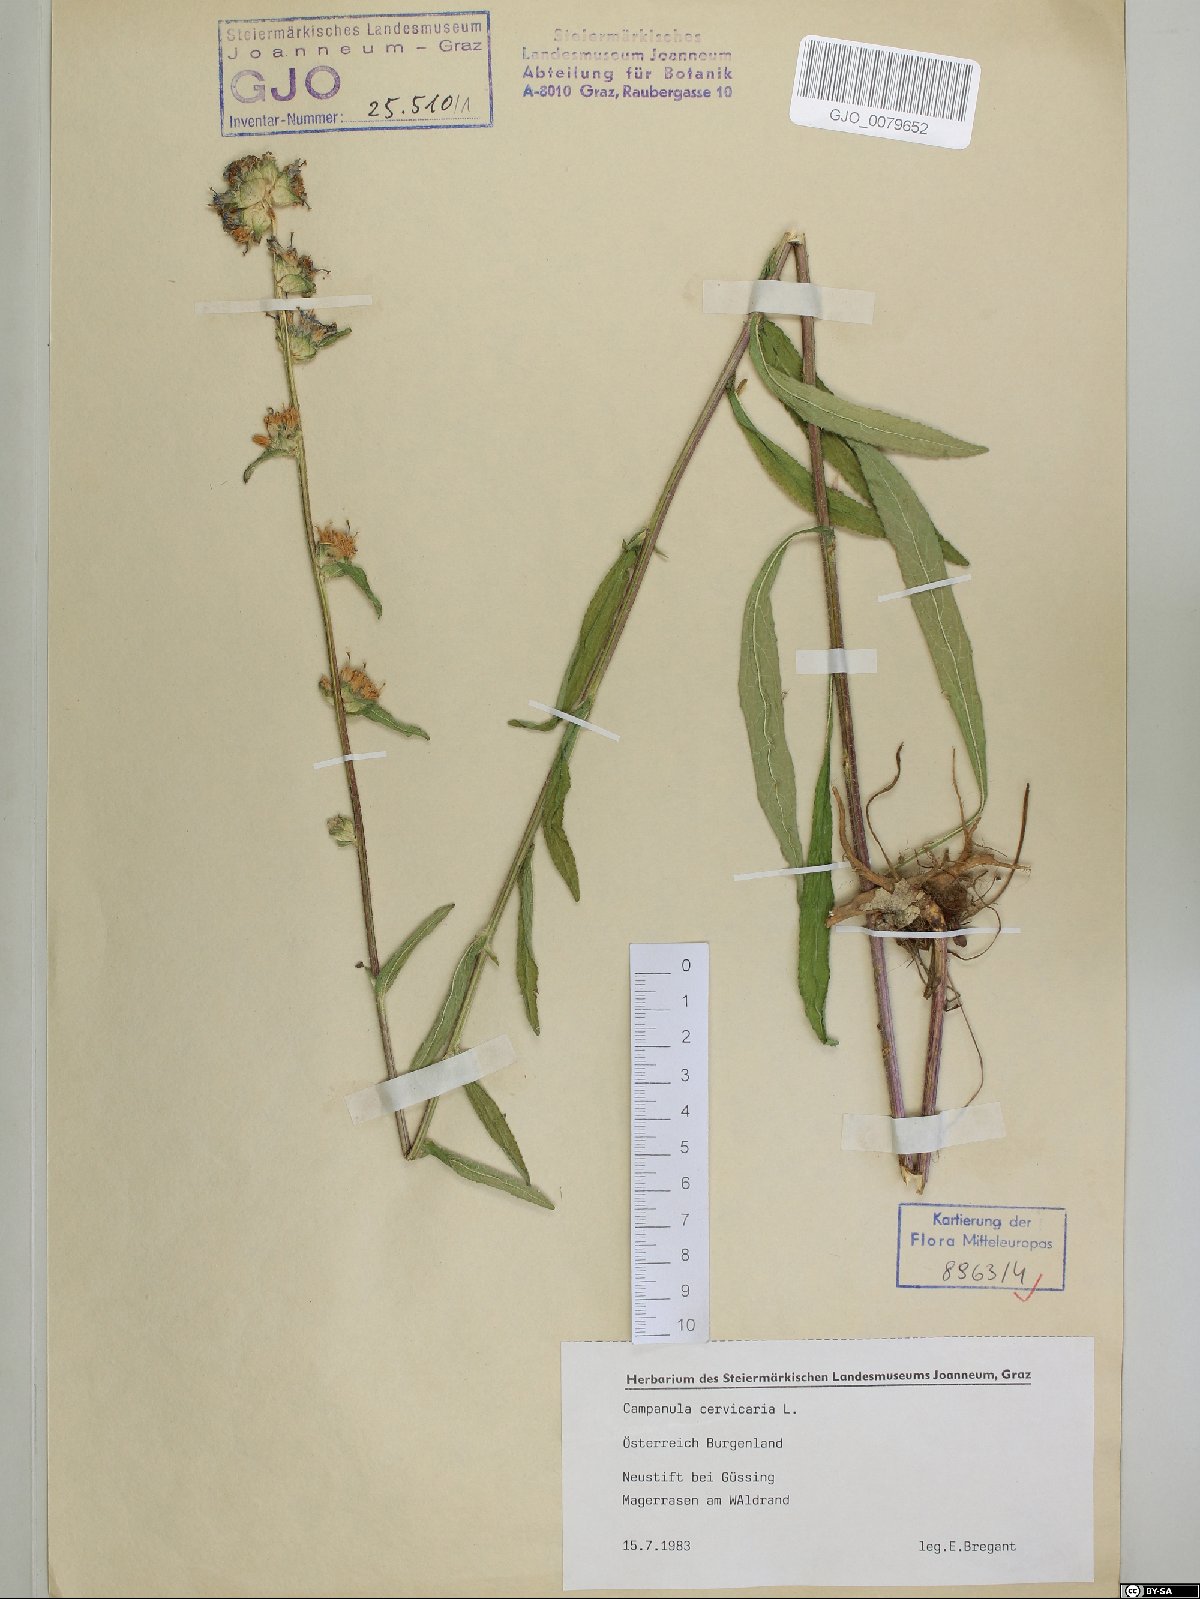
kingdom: Plantae
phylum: Tracheophyta
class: Magnoliopsida
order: Asterales
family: Campanulaceae
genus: Campanula
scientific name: Campanula cervicaria
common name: Bristly bellflower
